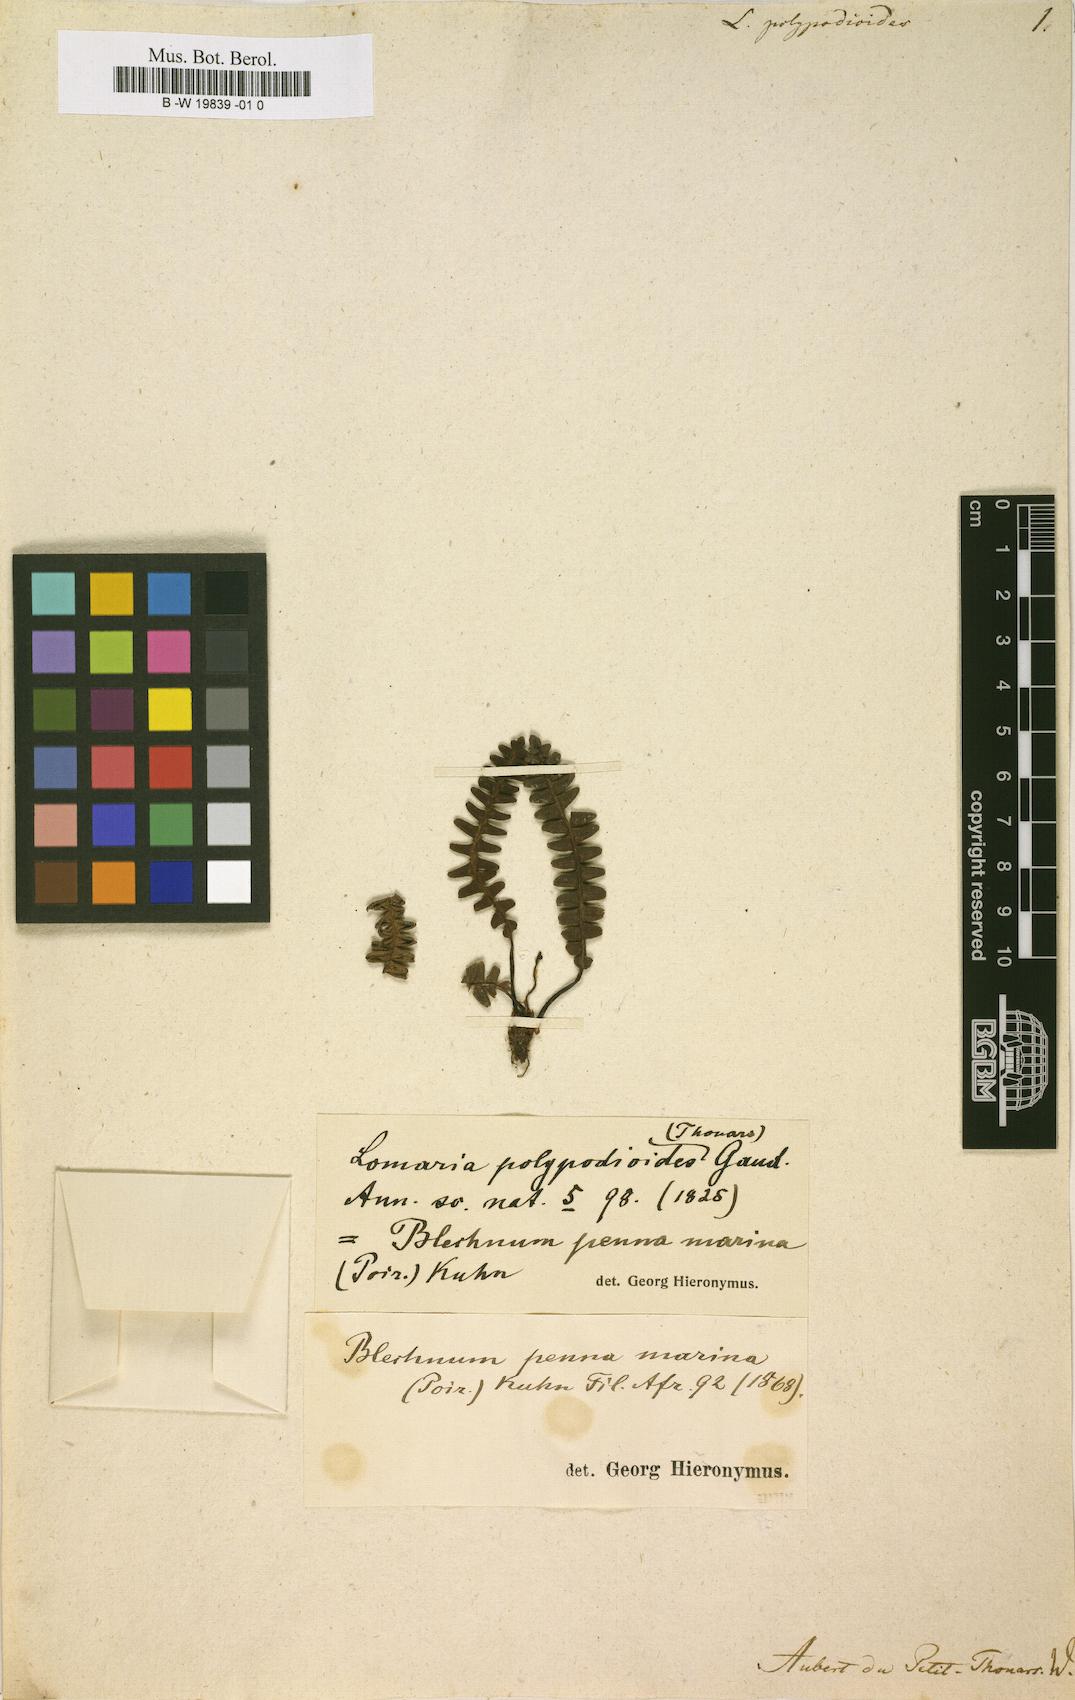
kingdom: Plantae
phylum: Tracheophyta
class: Polypodiopsida
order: Polypodiales
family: Blechnaceae
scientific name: Blechnaceae
